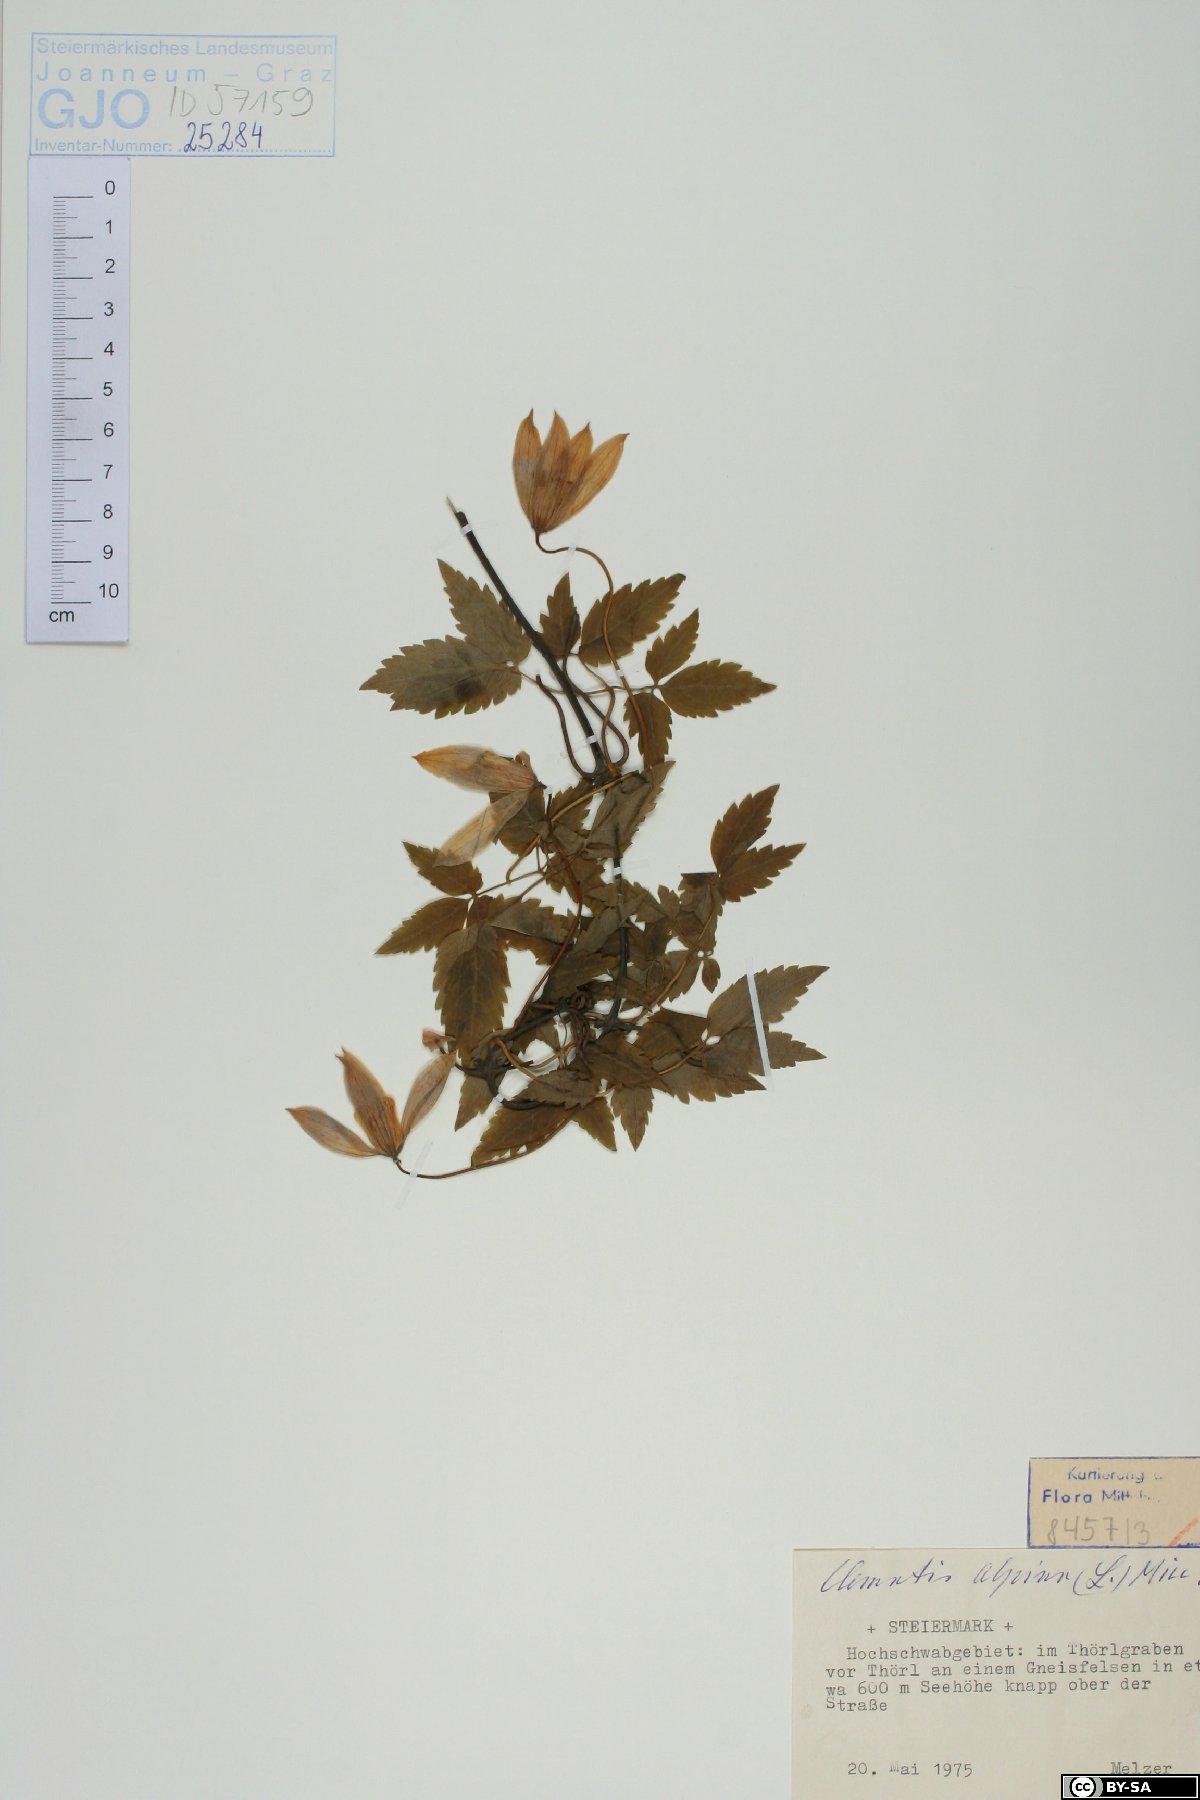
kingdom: Plantae
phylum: Tracheophyta
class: Magnoliopsida
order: Ranunculales
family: Ranunculaceae
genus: Clematis
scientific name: Clematis alpina
